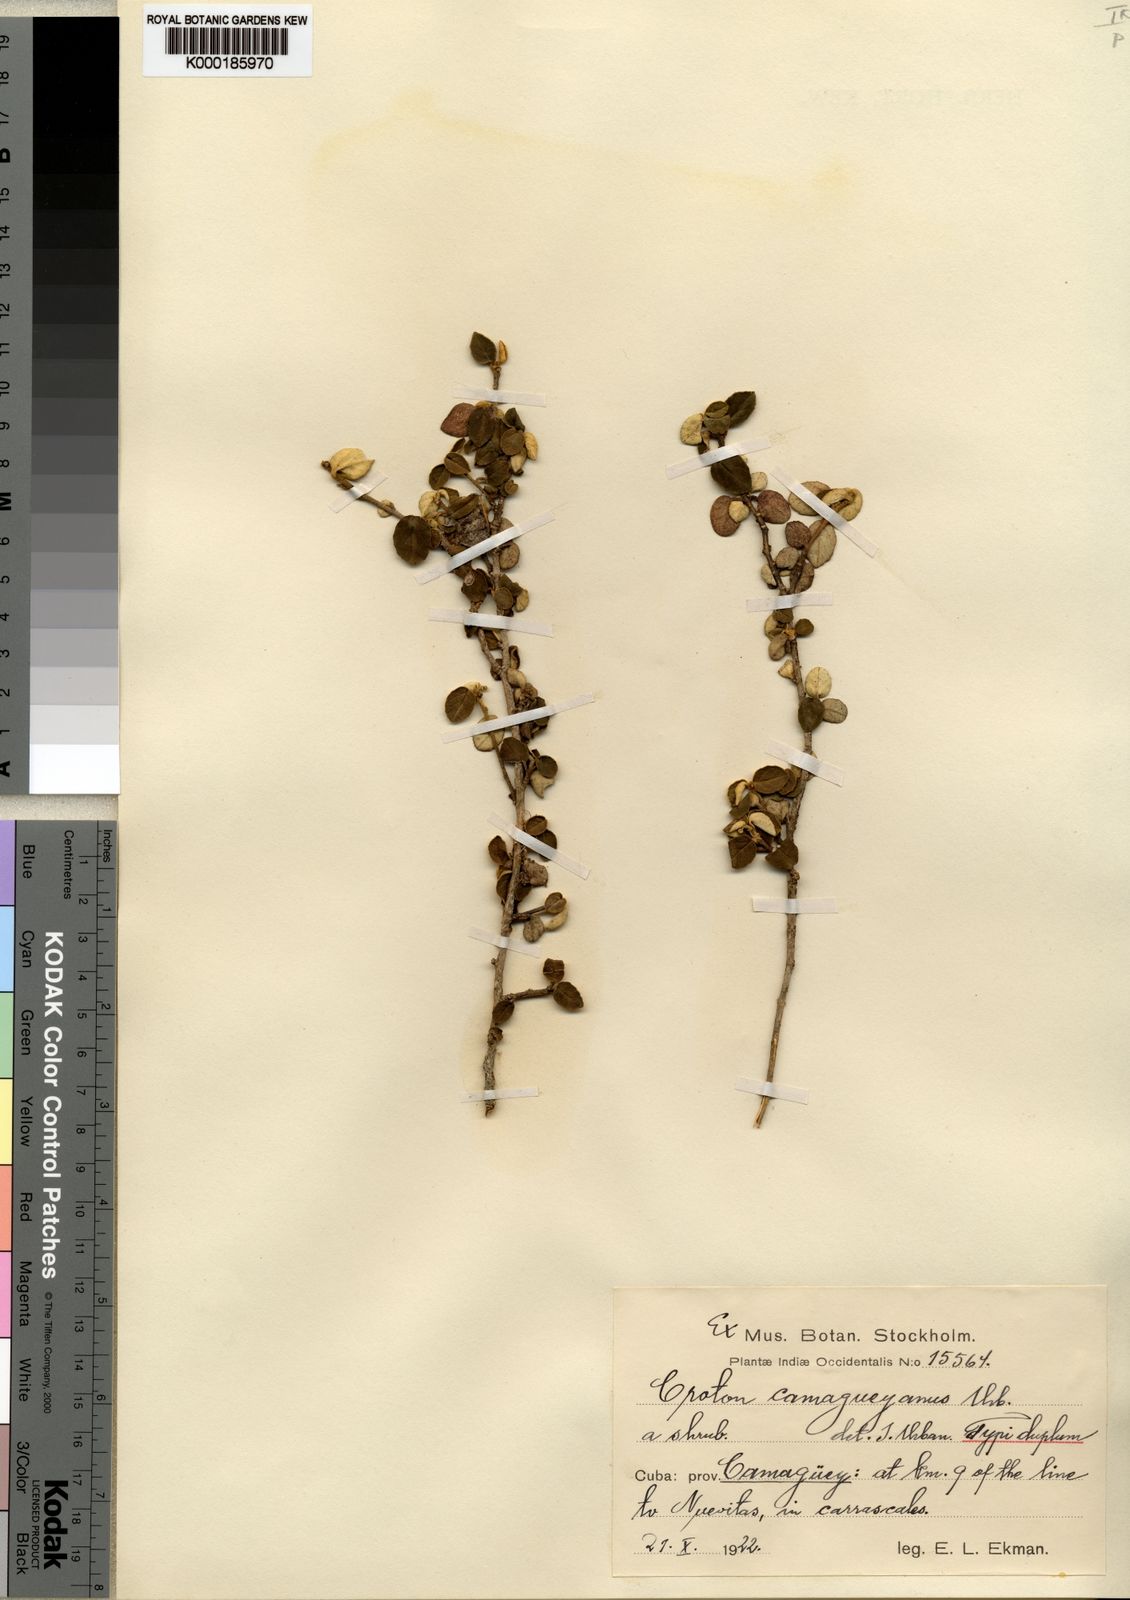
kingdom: Plantae
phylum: Tracheophyta
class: Magnoliopsida
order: Malpighiales
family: Euphorbiaceae
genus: Croton
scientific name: Croton origanifolius
